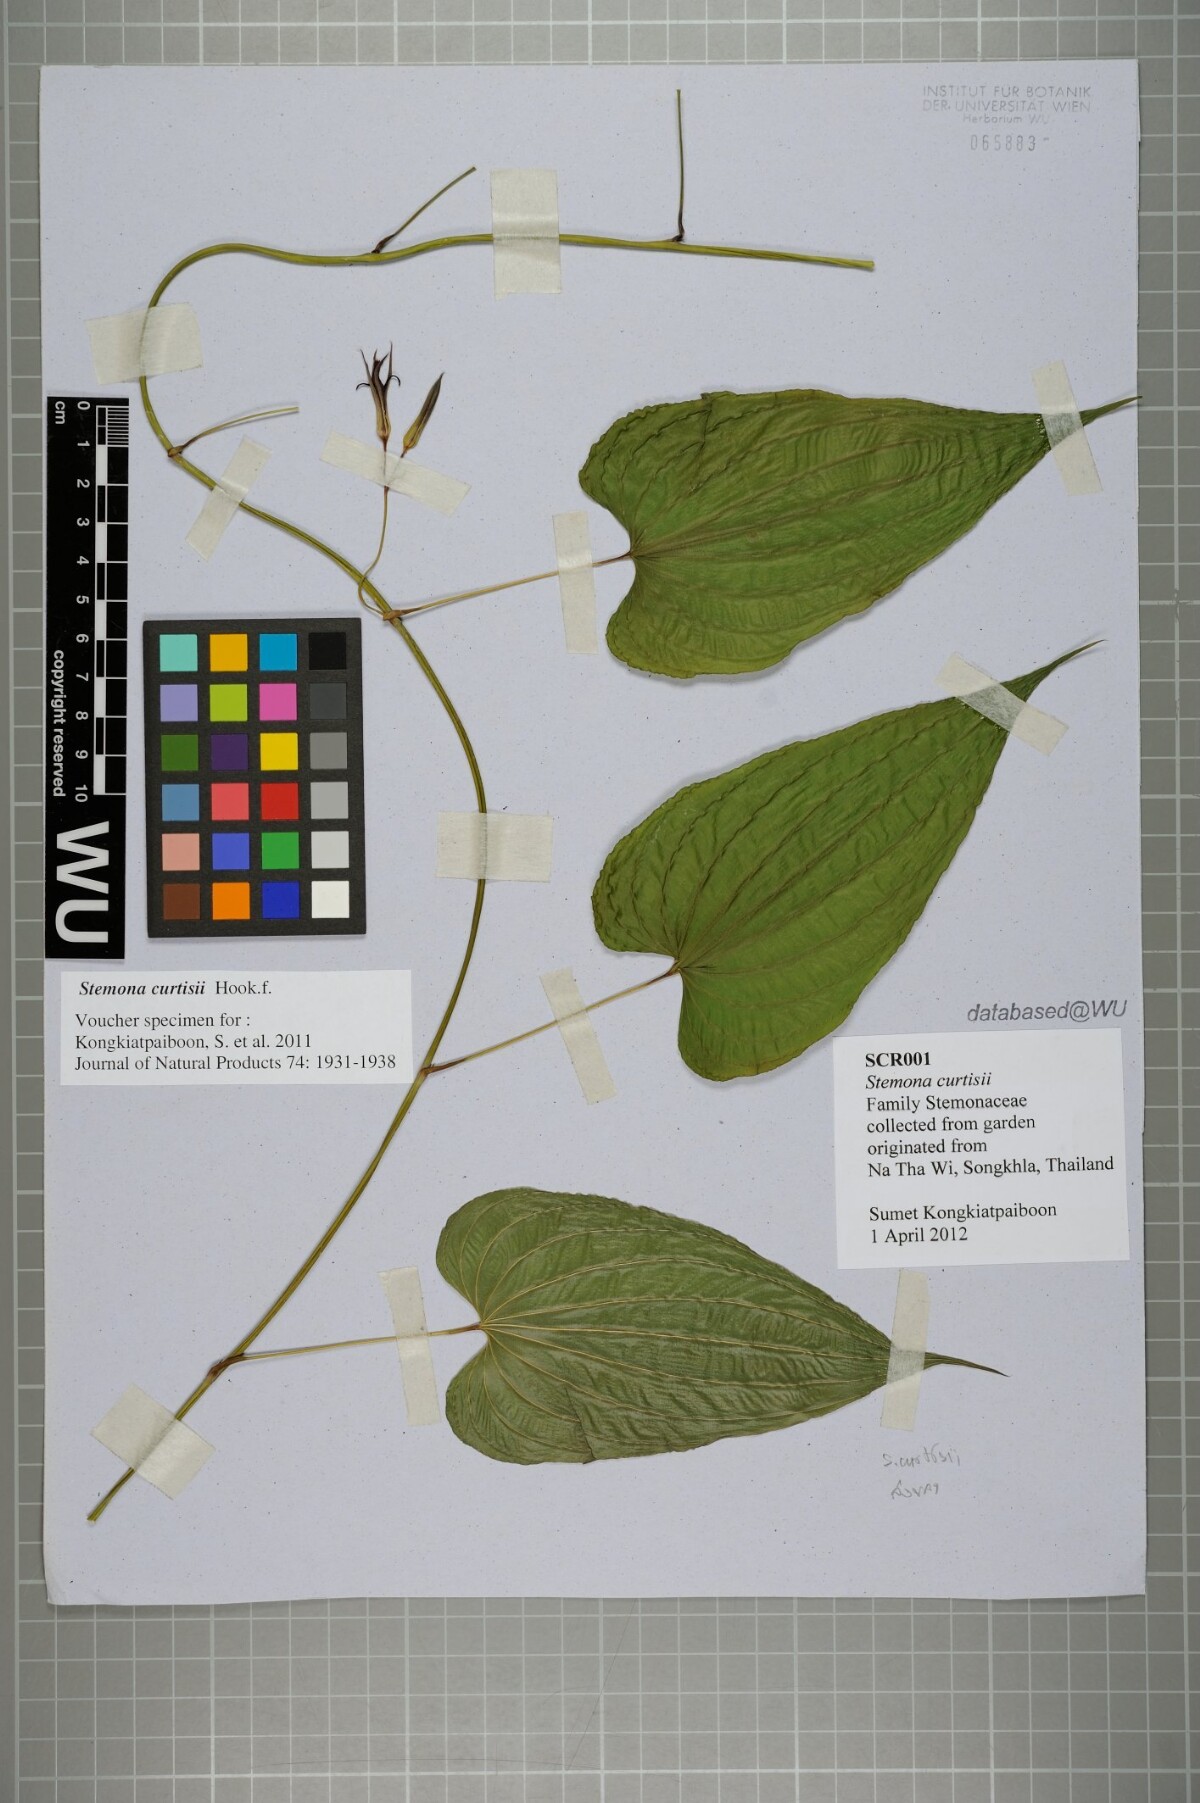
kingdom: Plantae
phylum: Tracheophyta
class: Liliopsida
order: Pandanales
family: Stemonaceae
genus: Stemona
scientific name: Stemona curtisii
